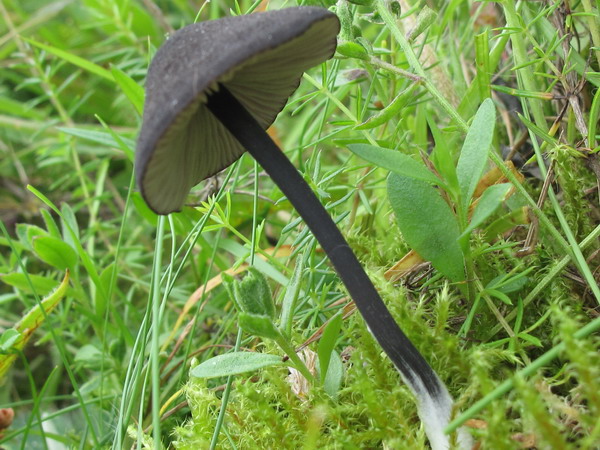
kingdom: Fungi
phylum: Basidiomycota
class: Agaricomycetes
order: Agaricales
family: Entolomataceae
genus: Entoloma
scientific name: Entoloma chalybeum
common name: blåbladet rødblad
